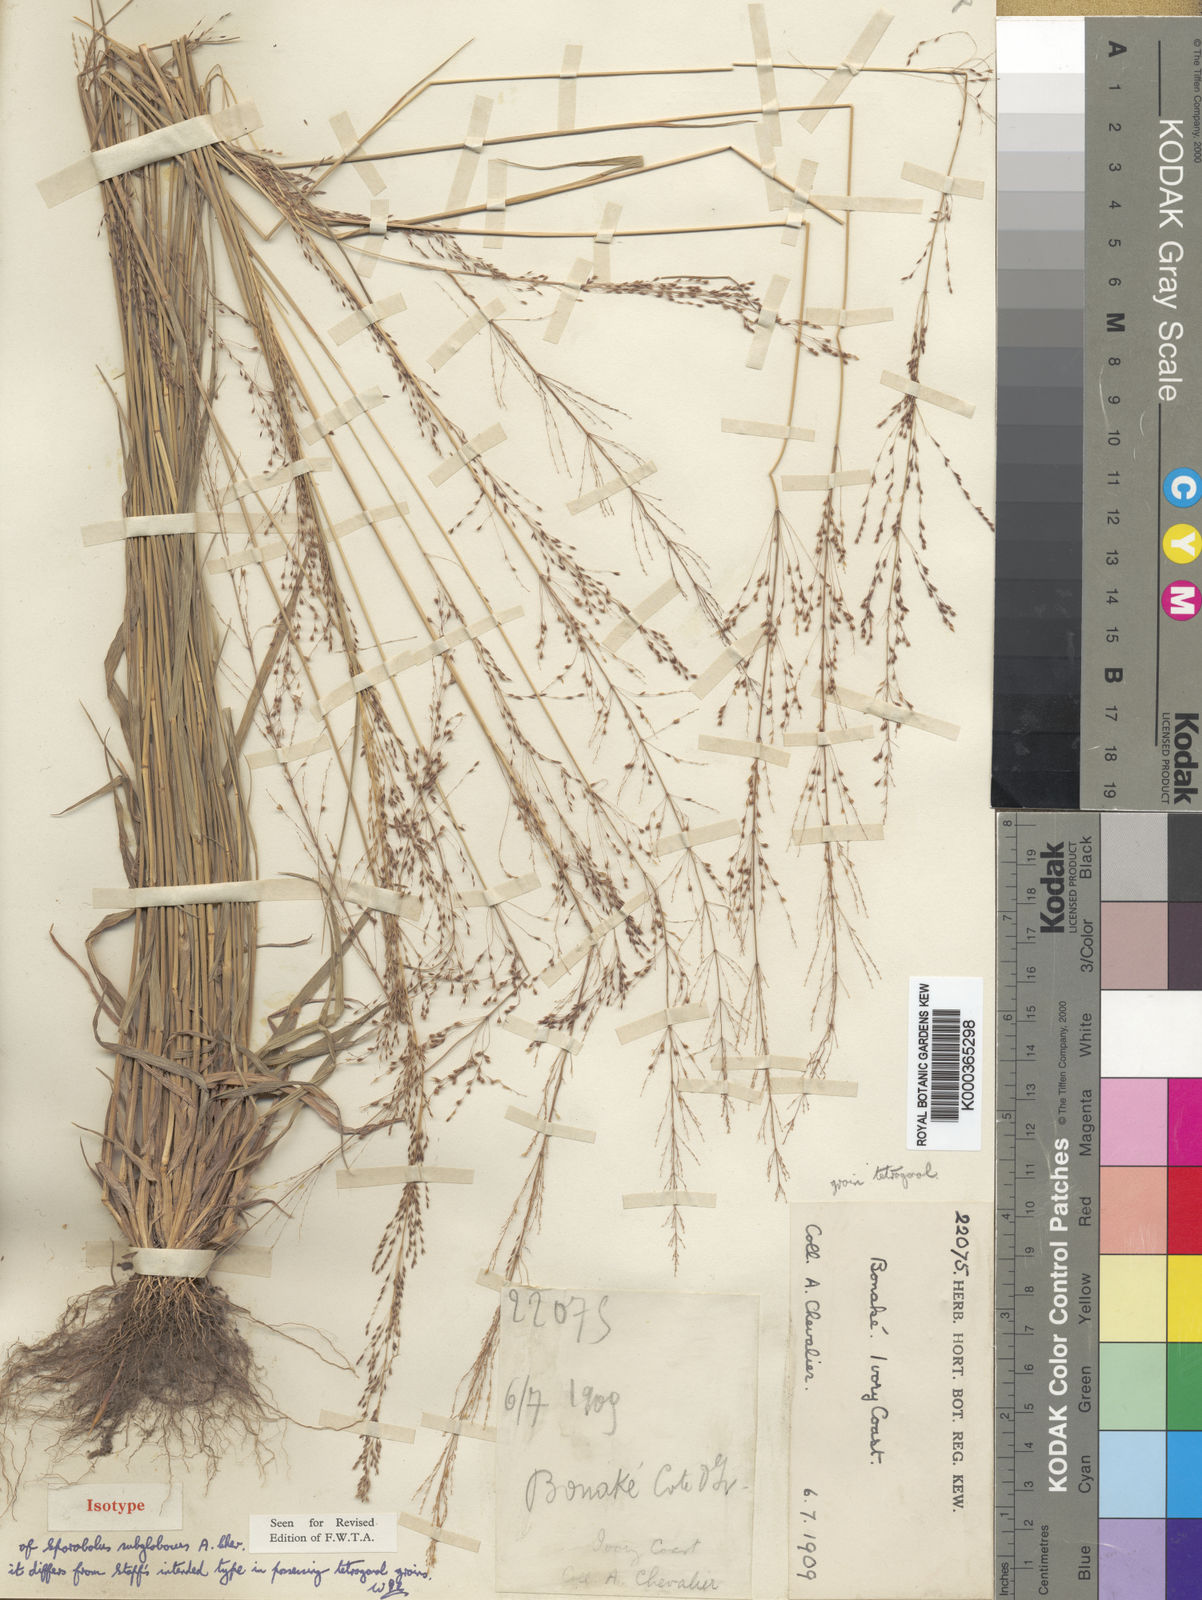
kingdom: Plantae
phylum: Tracheophyta
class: Liliopsida
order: Poales
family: Poaceae
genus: Sporobolus
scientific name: Sporobolus
